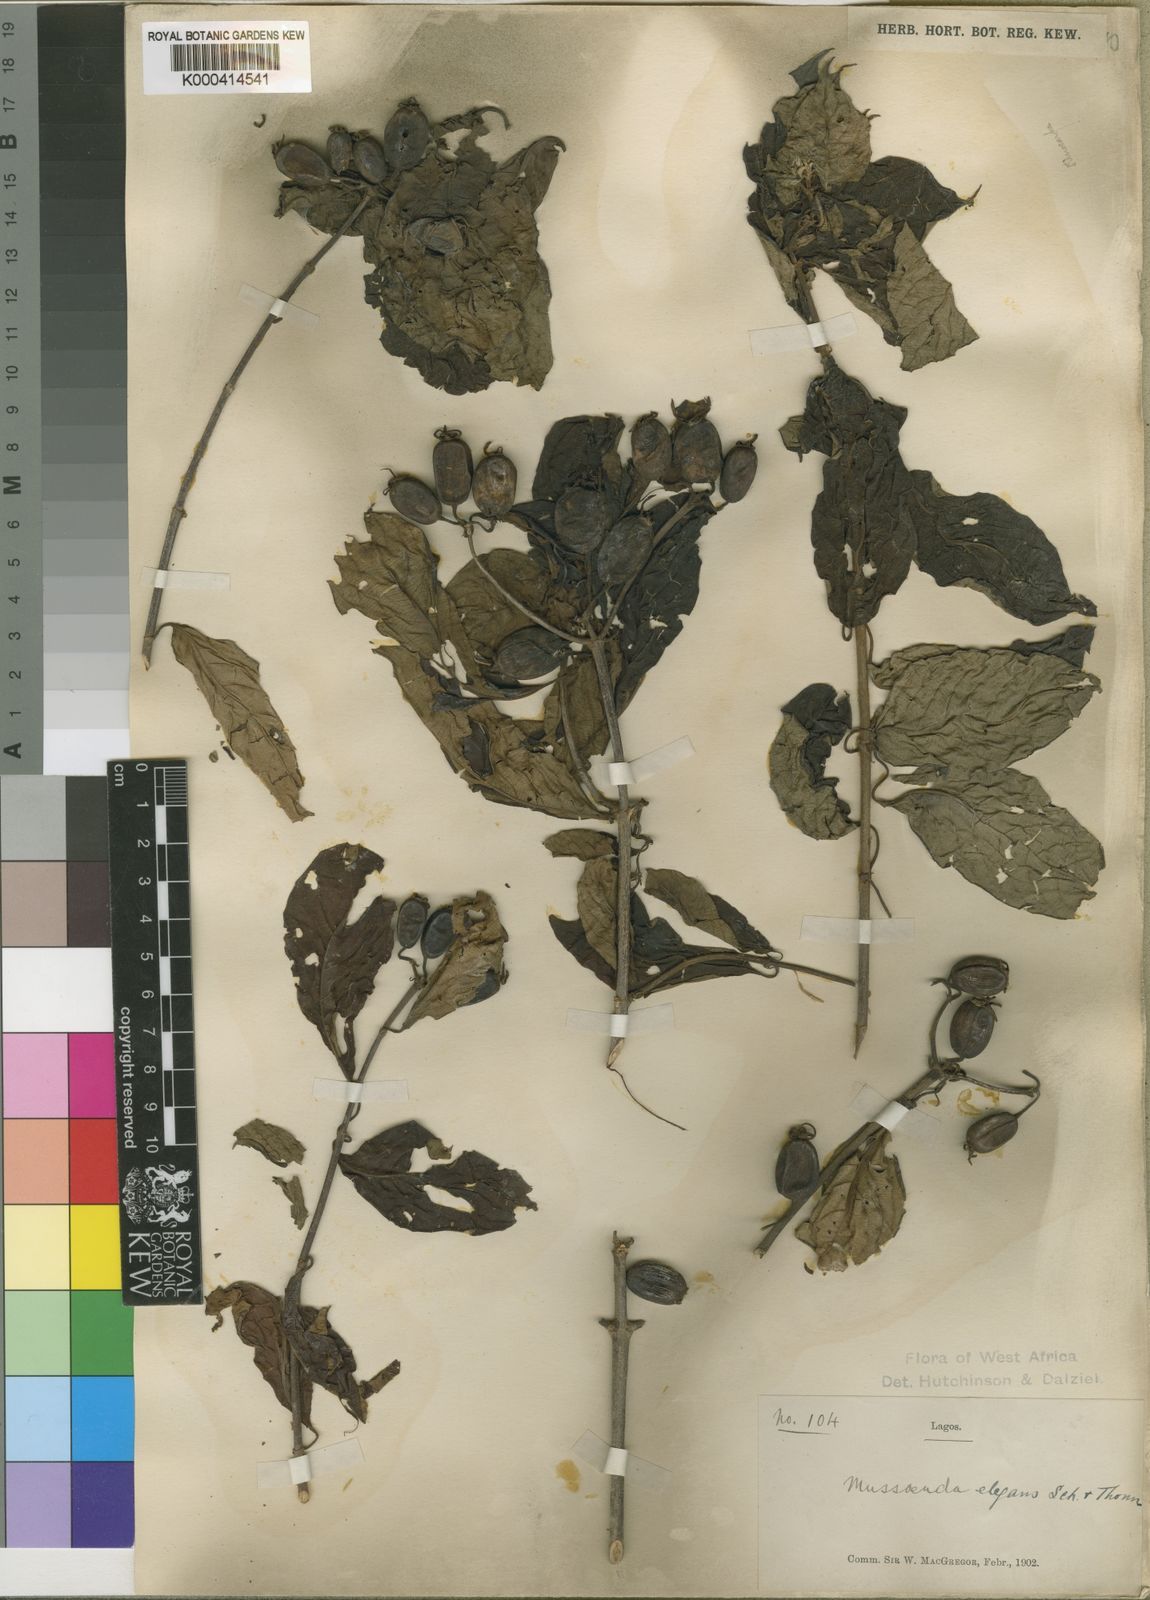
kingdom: Plantae
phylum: Tracheophyta
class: Magnoliopsida
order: Gentianales
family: Rubiaceae
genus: Mussaenda
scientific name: Mussaenda elegans
